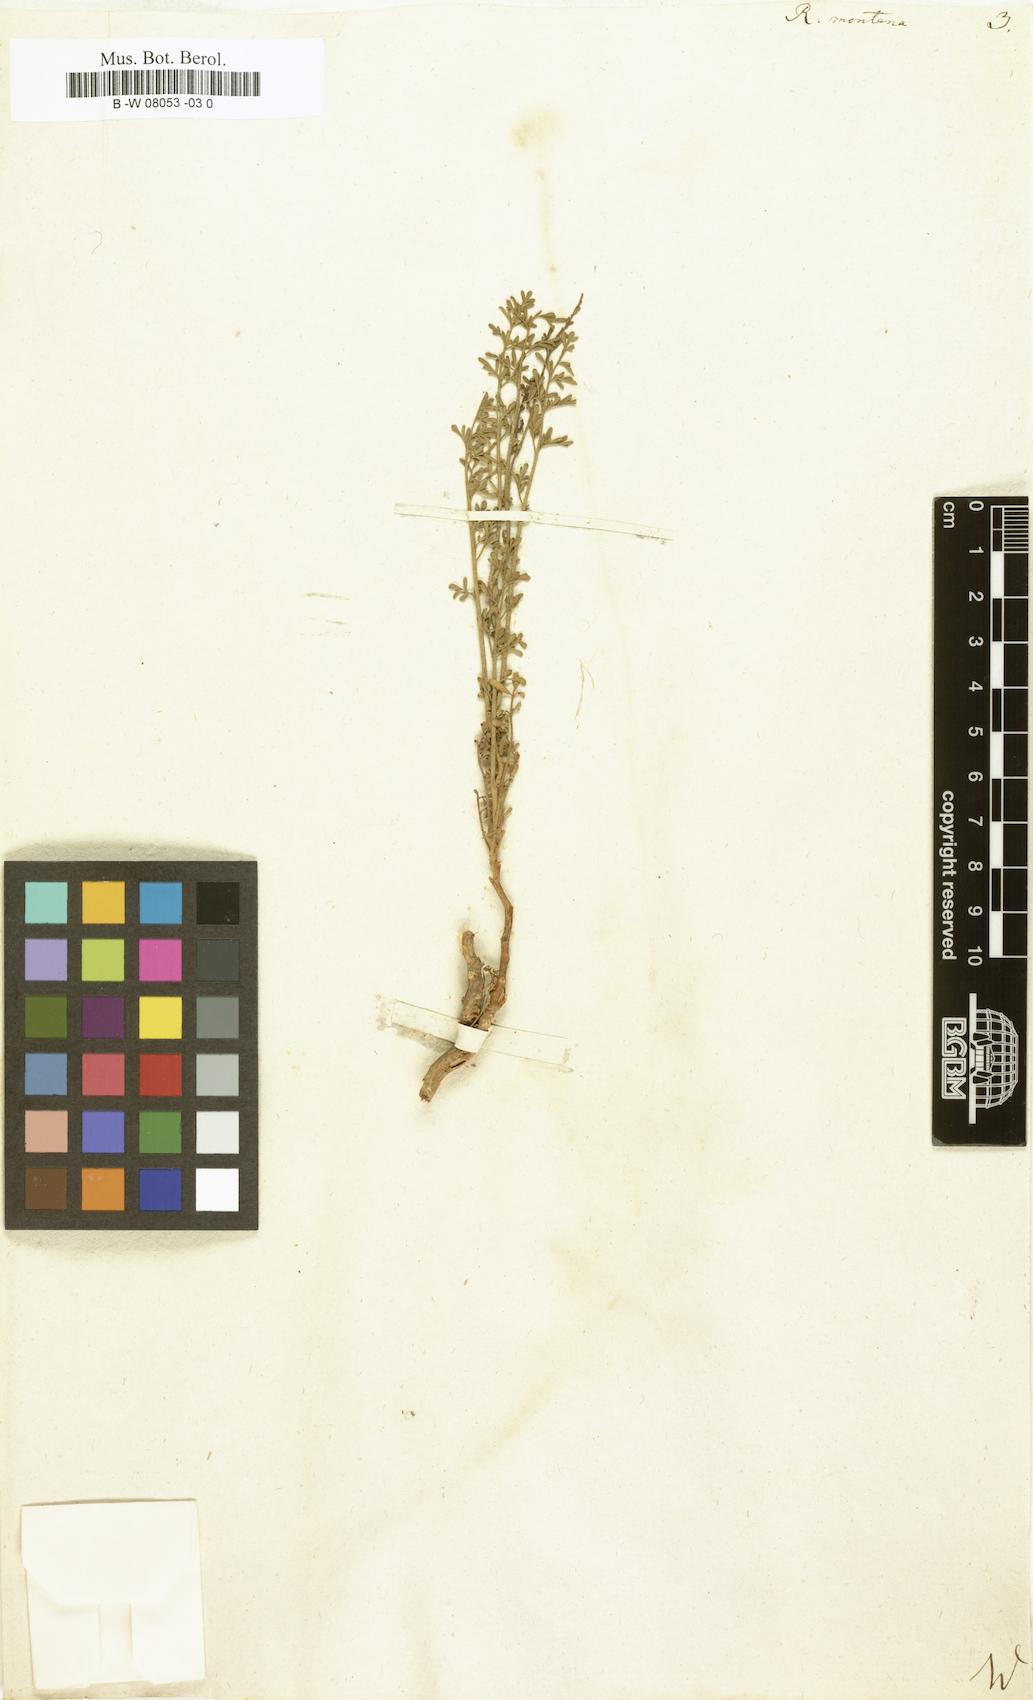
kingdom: Plantae
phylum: Tracheophyta
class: Magnoliopsida
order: Sapindales
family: Rutaceae
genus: Ruta
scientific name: Ruta montana
